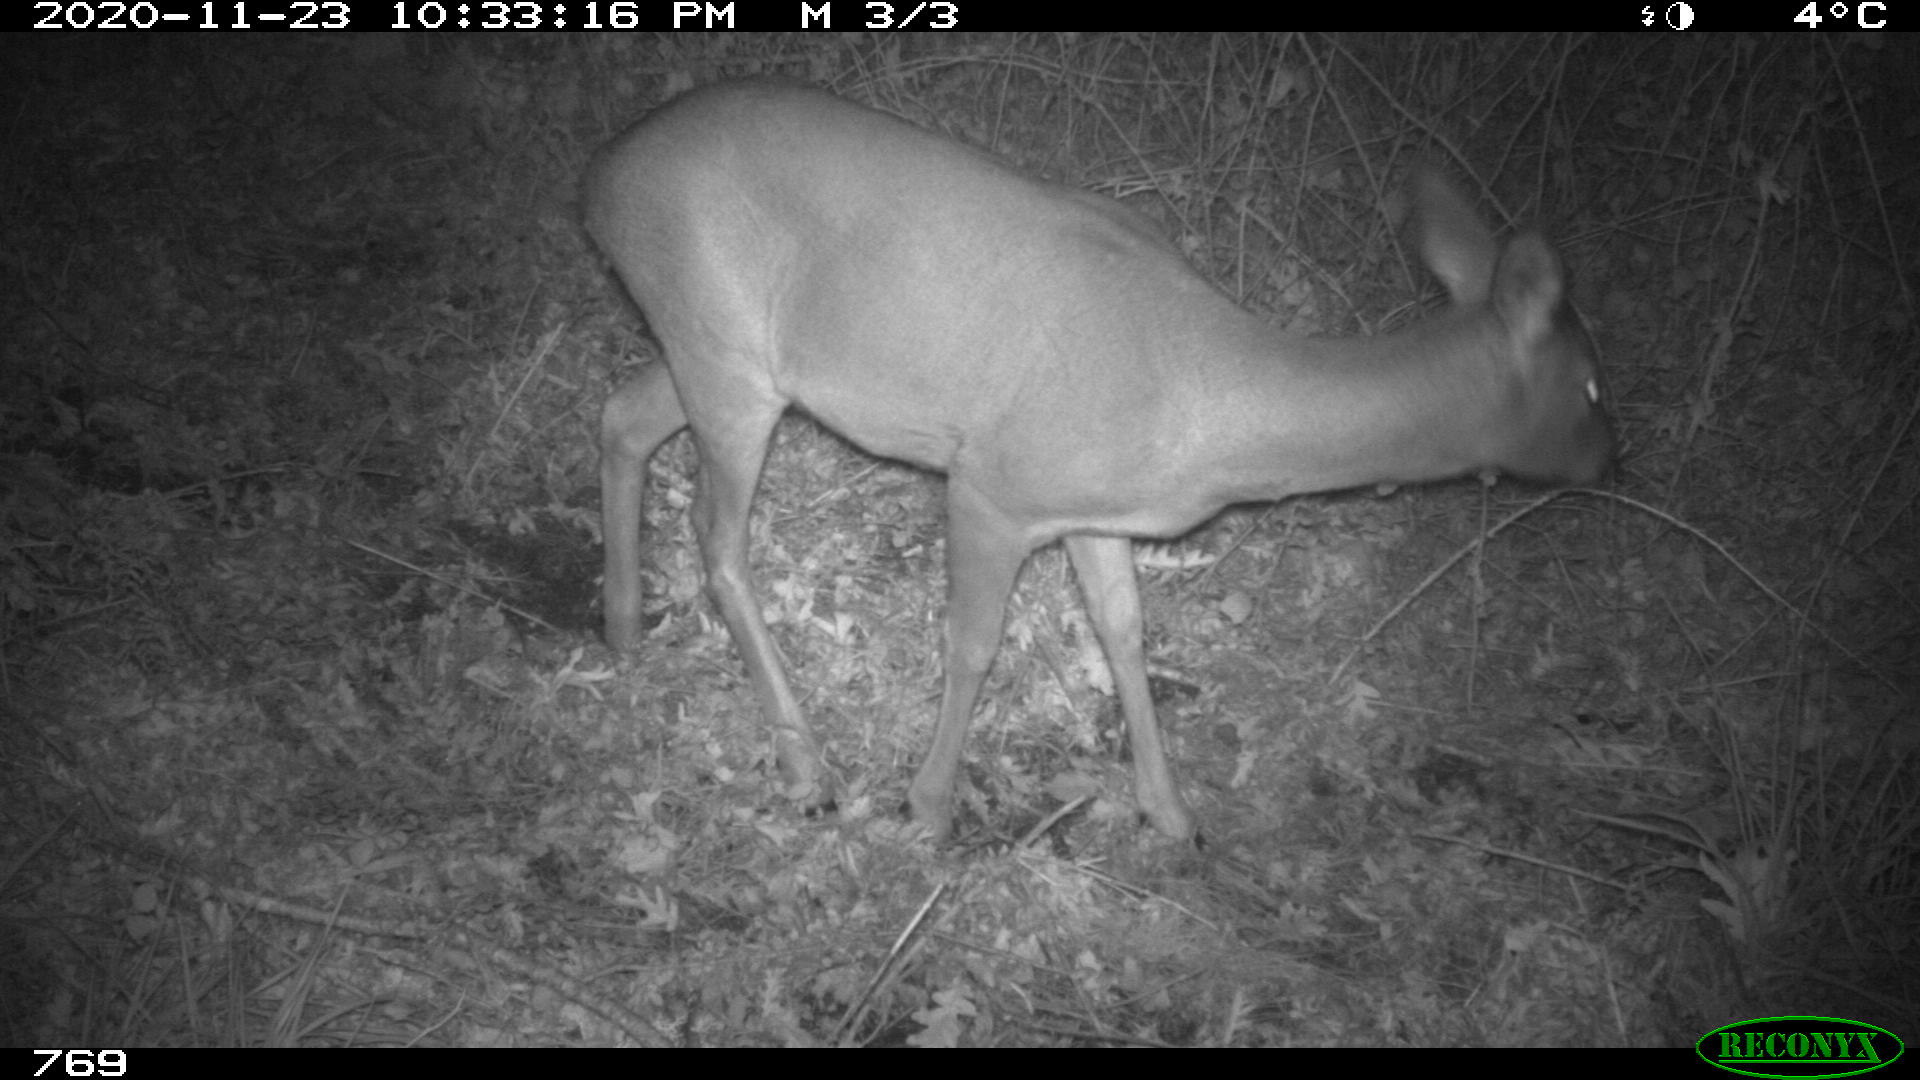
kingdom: Animalia
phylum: Chordata
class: Mammalia
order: Artiodactyla
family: Cervidae
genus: Capreolus
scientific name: Capreolus capreolus
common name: Western roe deer
